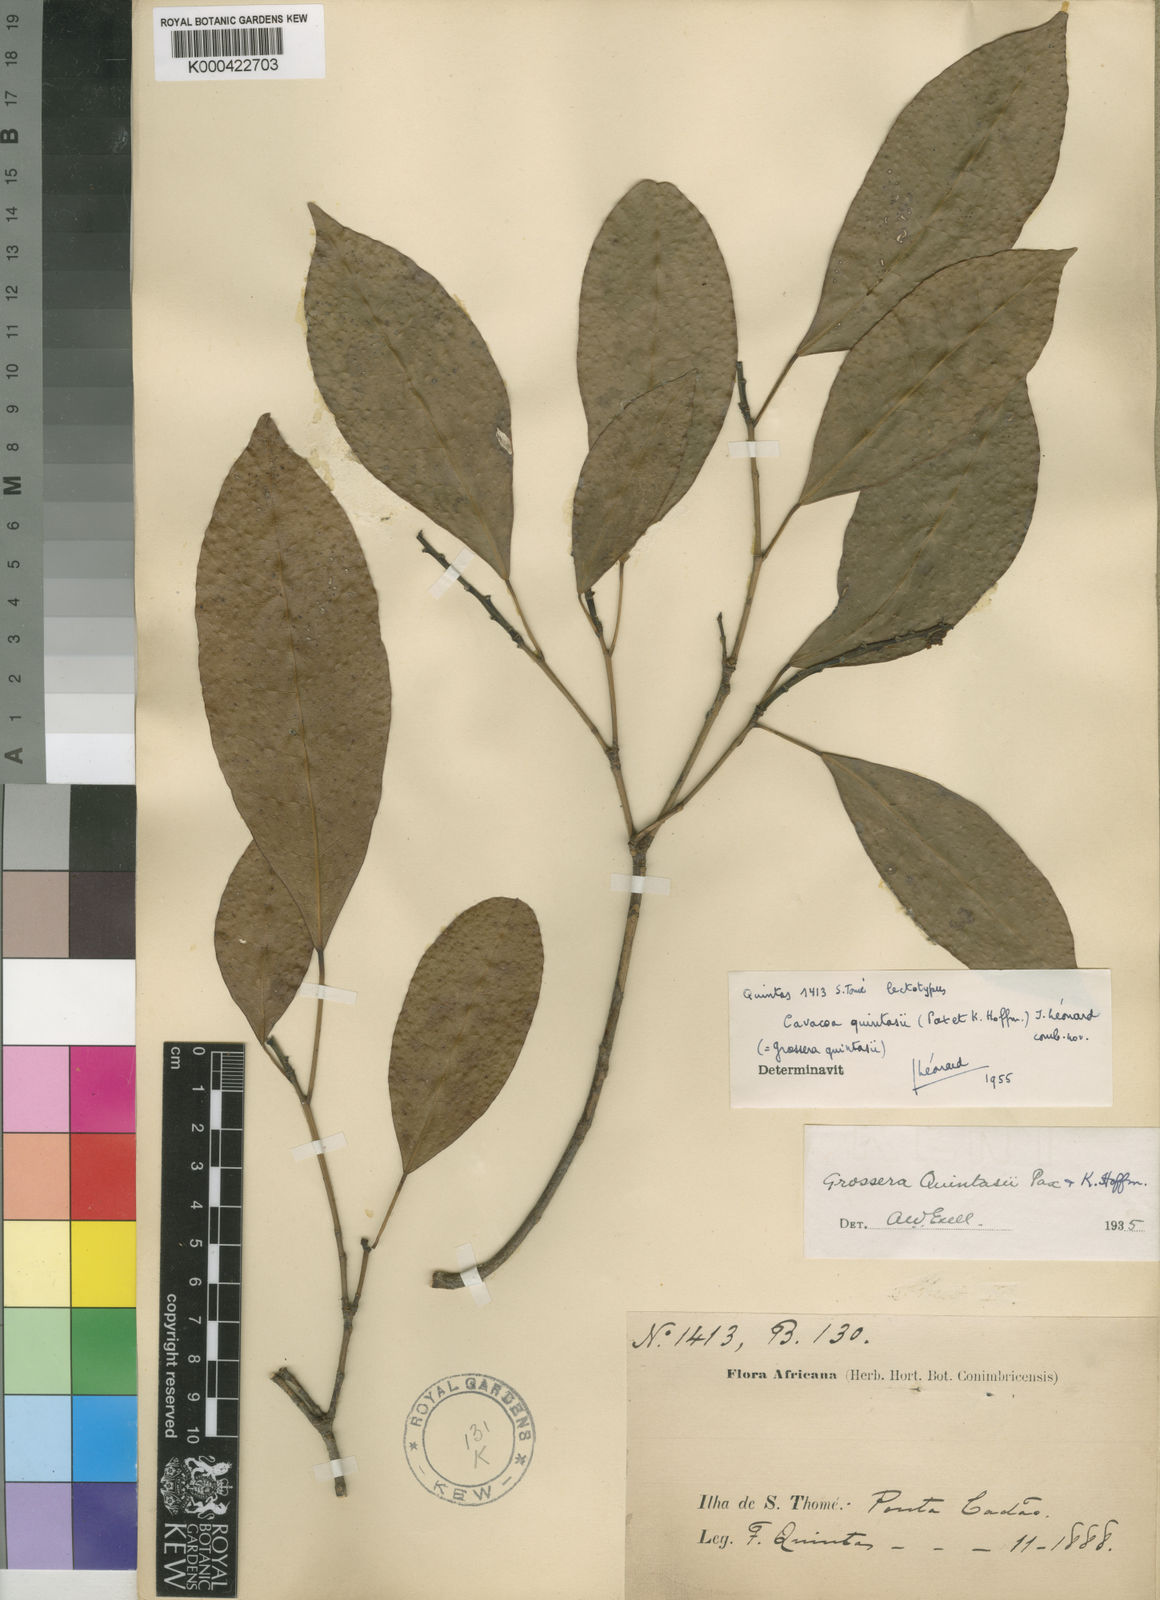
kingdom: Plantae
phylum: Tracheophyta
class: Magnoliopsida
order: Malpighiales
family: Euphorbiaceae
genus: Cavacoa
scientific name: Cavacoa
